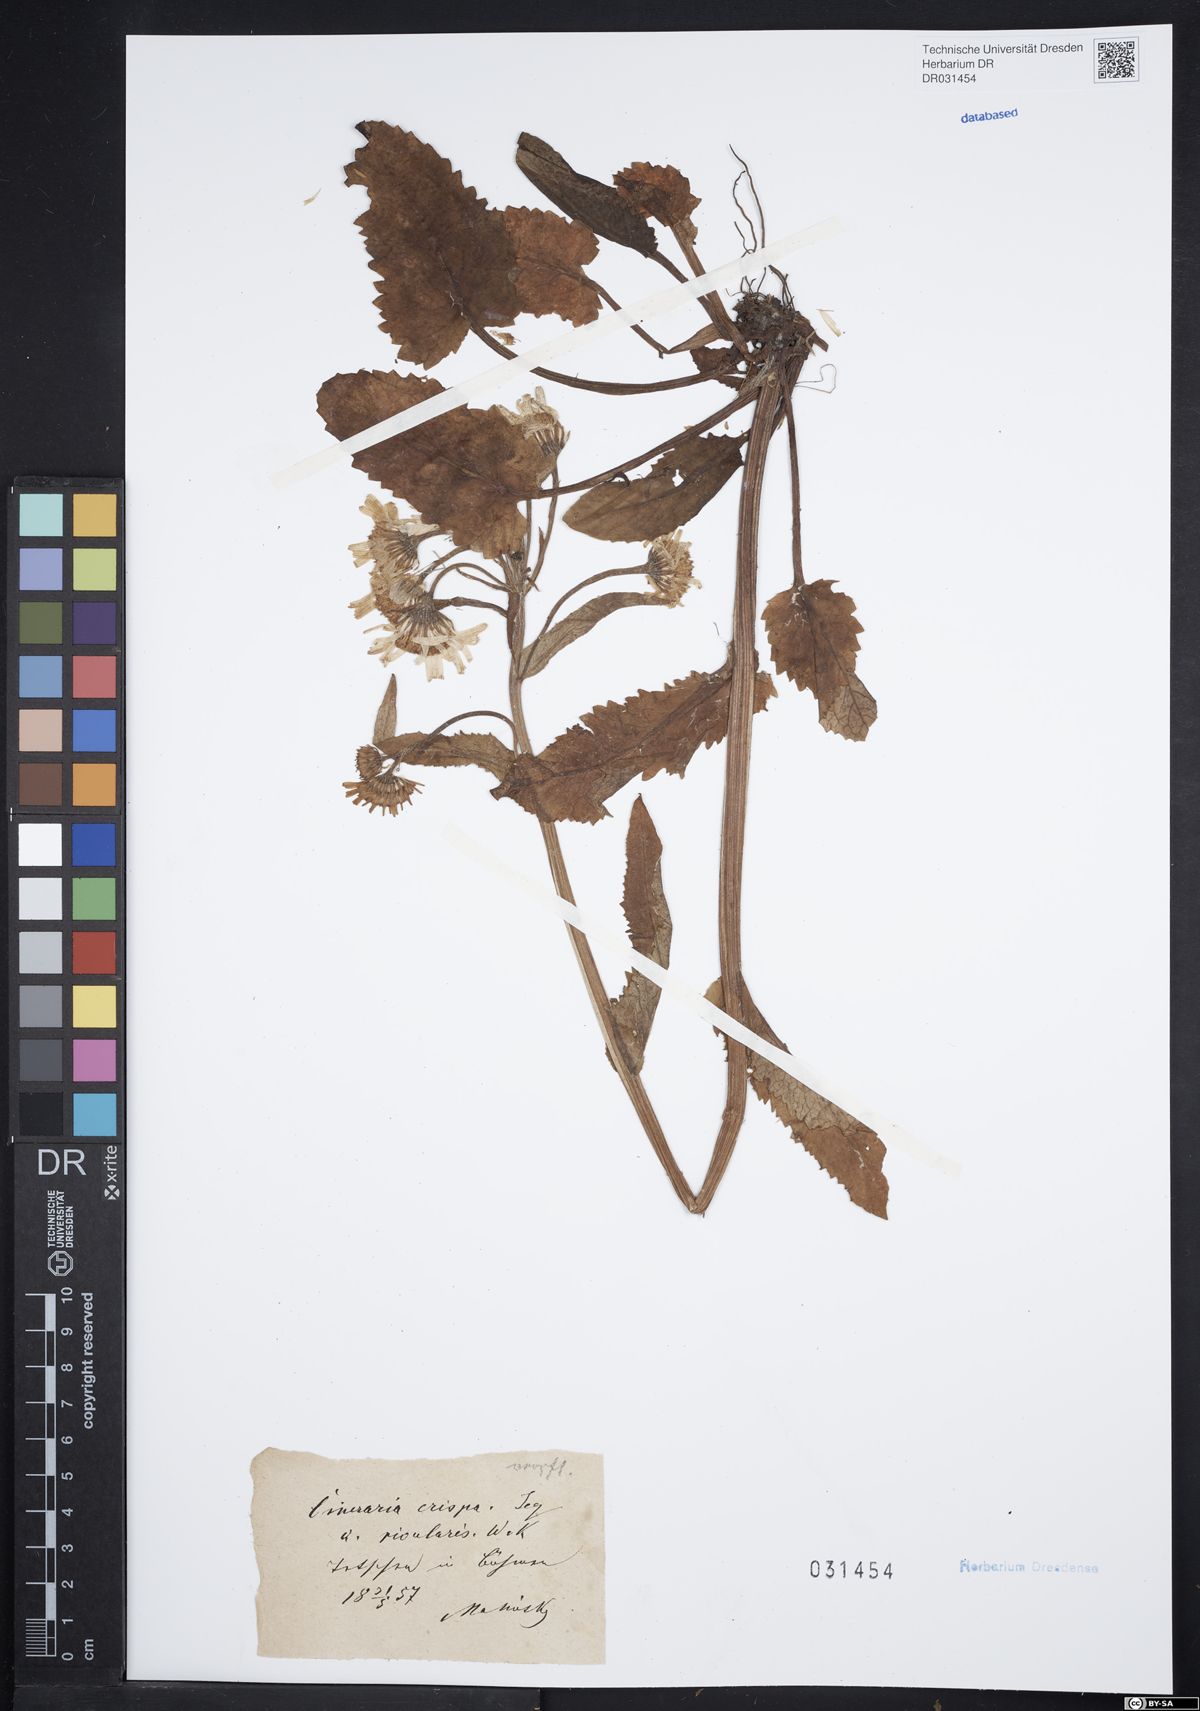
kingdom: Plantae
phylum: Tracheophyta
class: Magnoliopsida
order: Asterales
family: Asteraceae
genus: Tephroseris
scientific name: Tephroseris crispa
